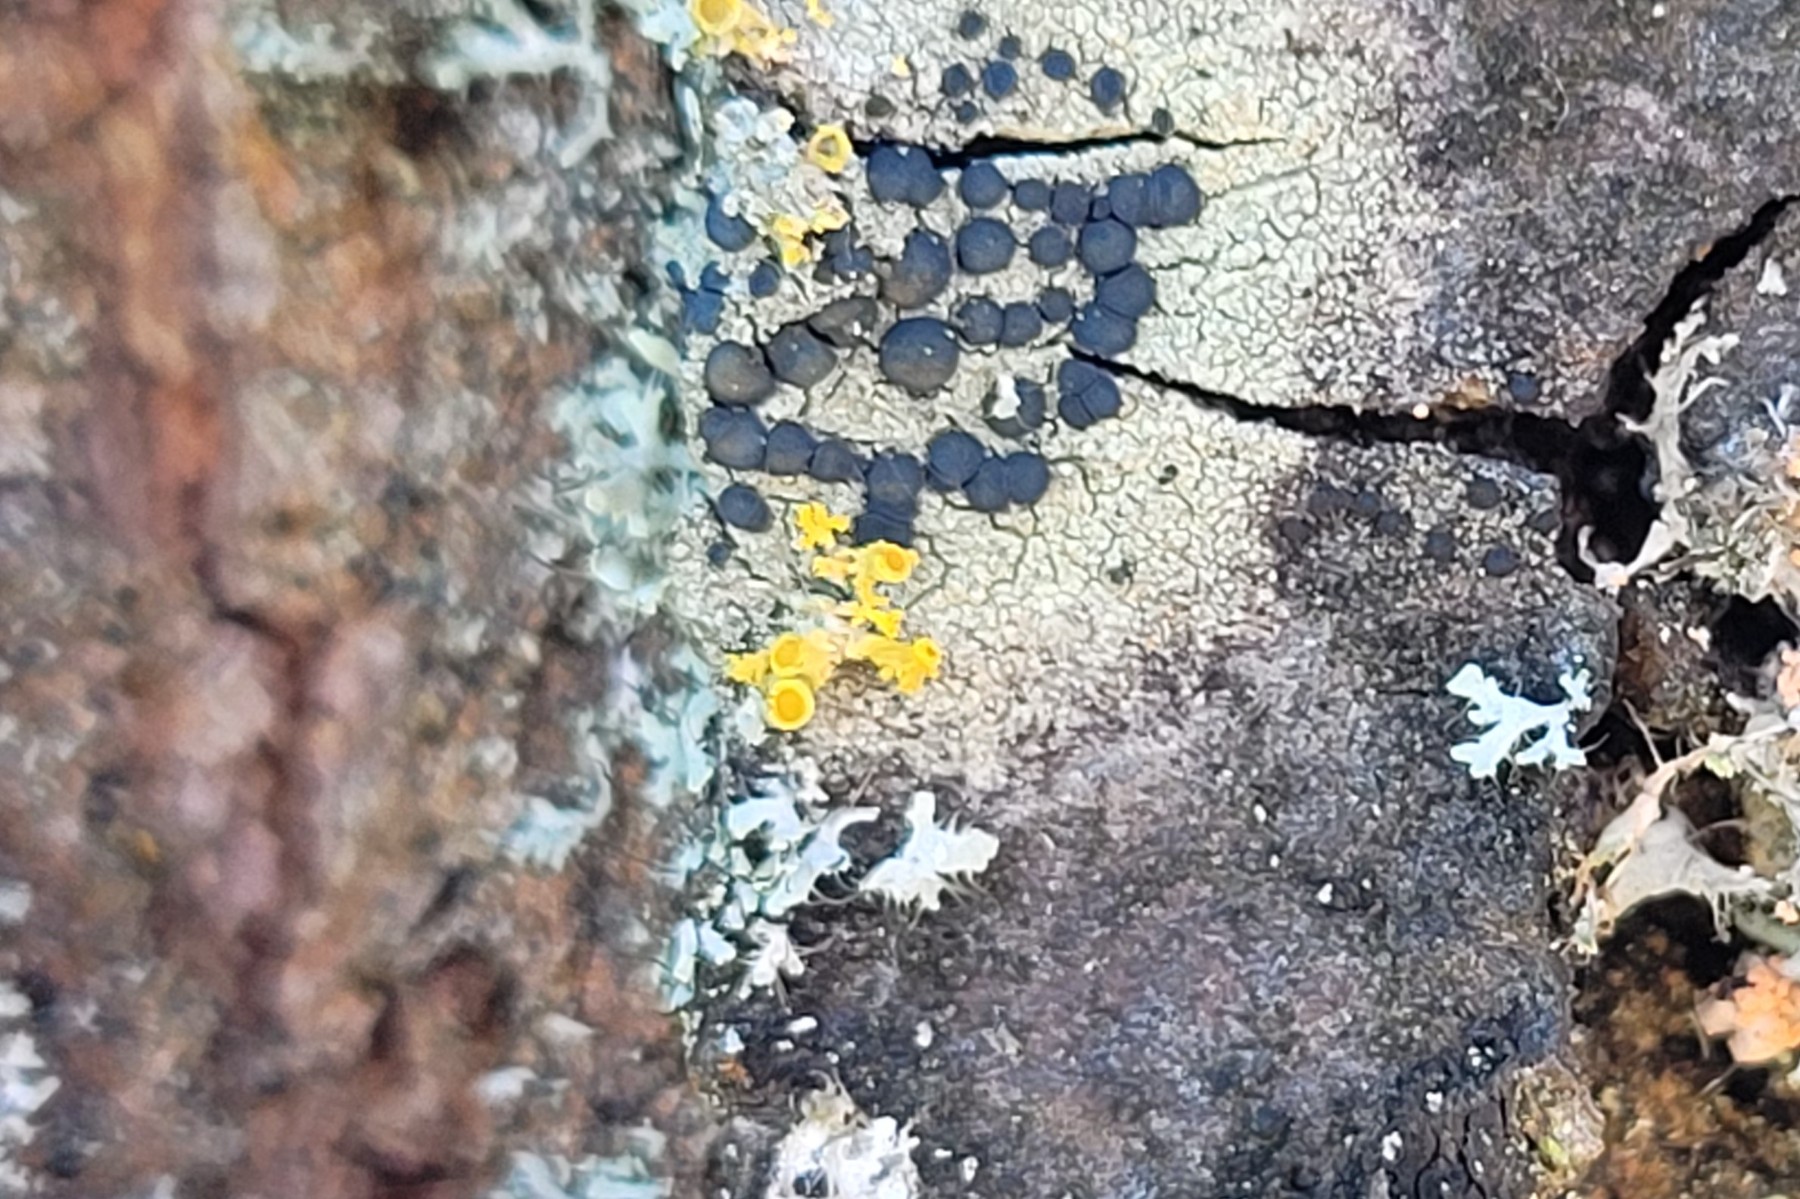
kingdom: Fungi
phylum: Ascomycota
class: Lecanoromycetes
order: Teloschistales
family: Teloschistaceae
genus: Polycauliona
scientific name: Polycauliona polycarpa
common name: mangefrugtet orangelav
